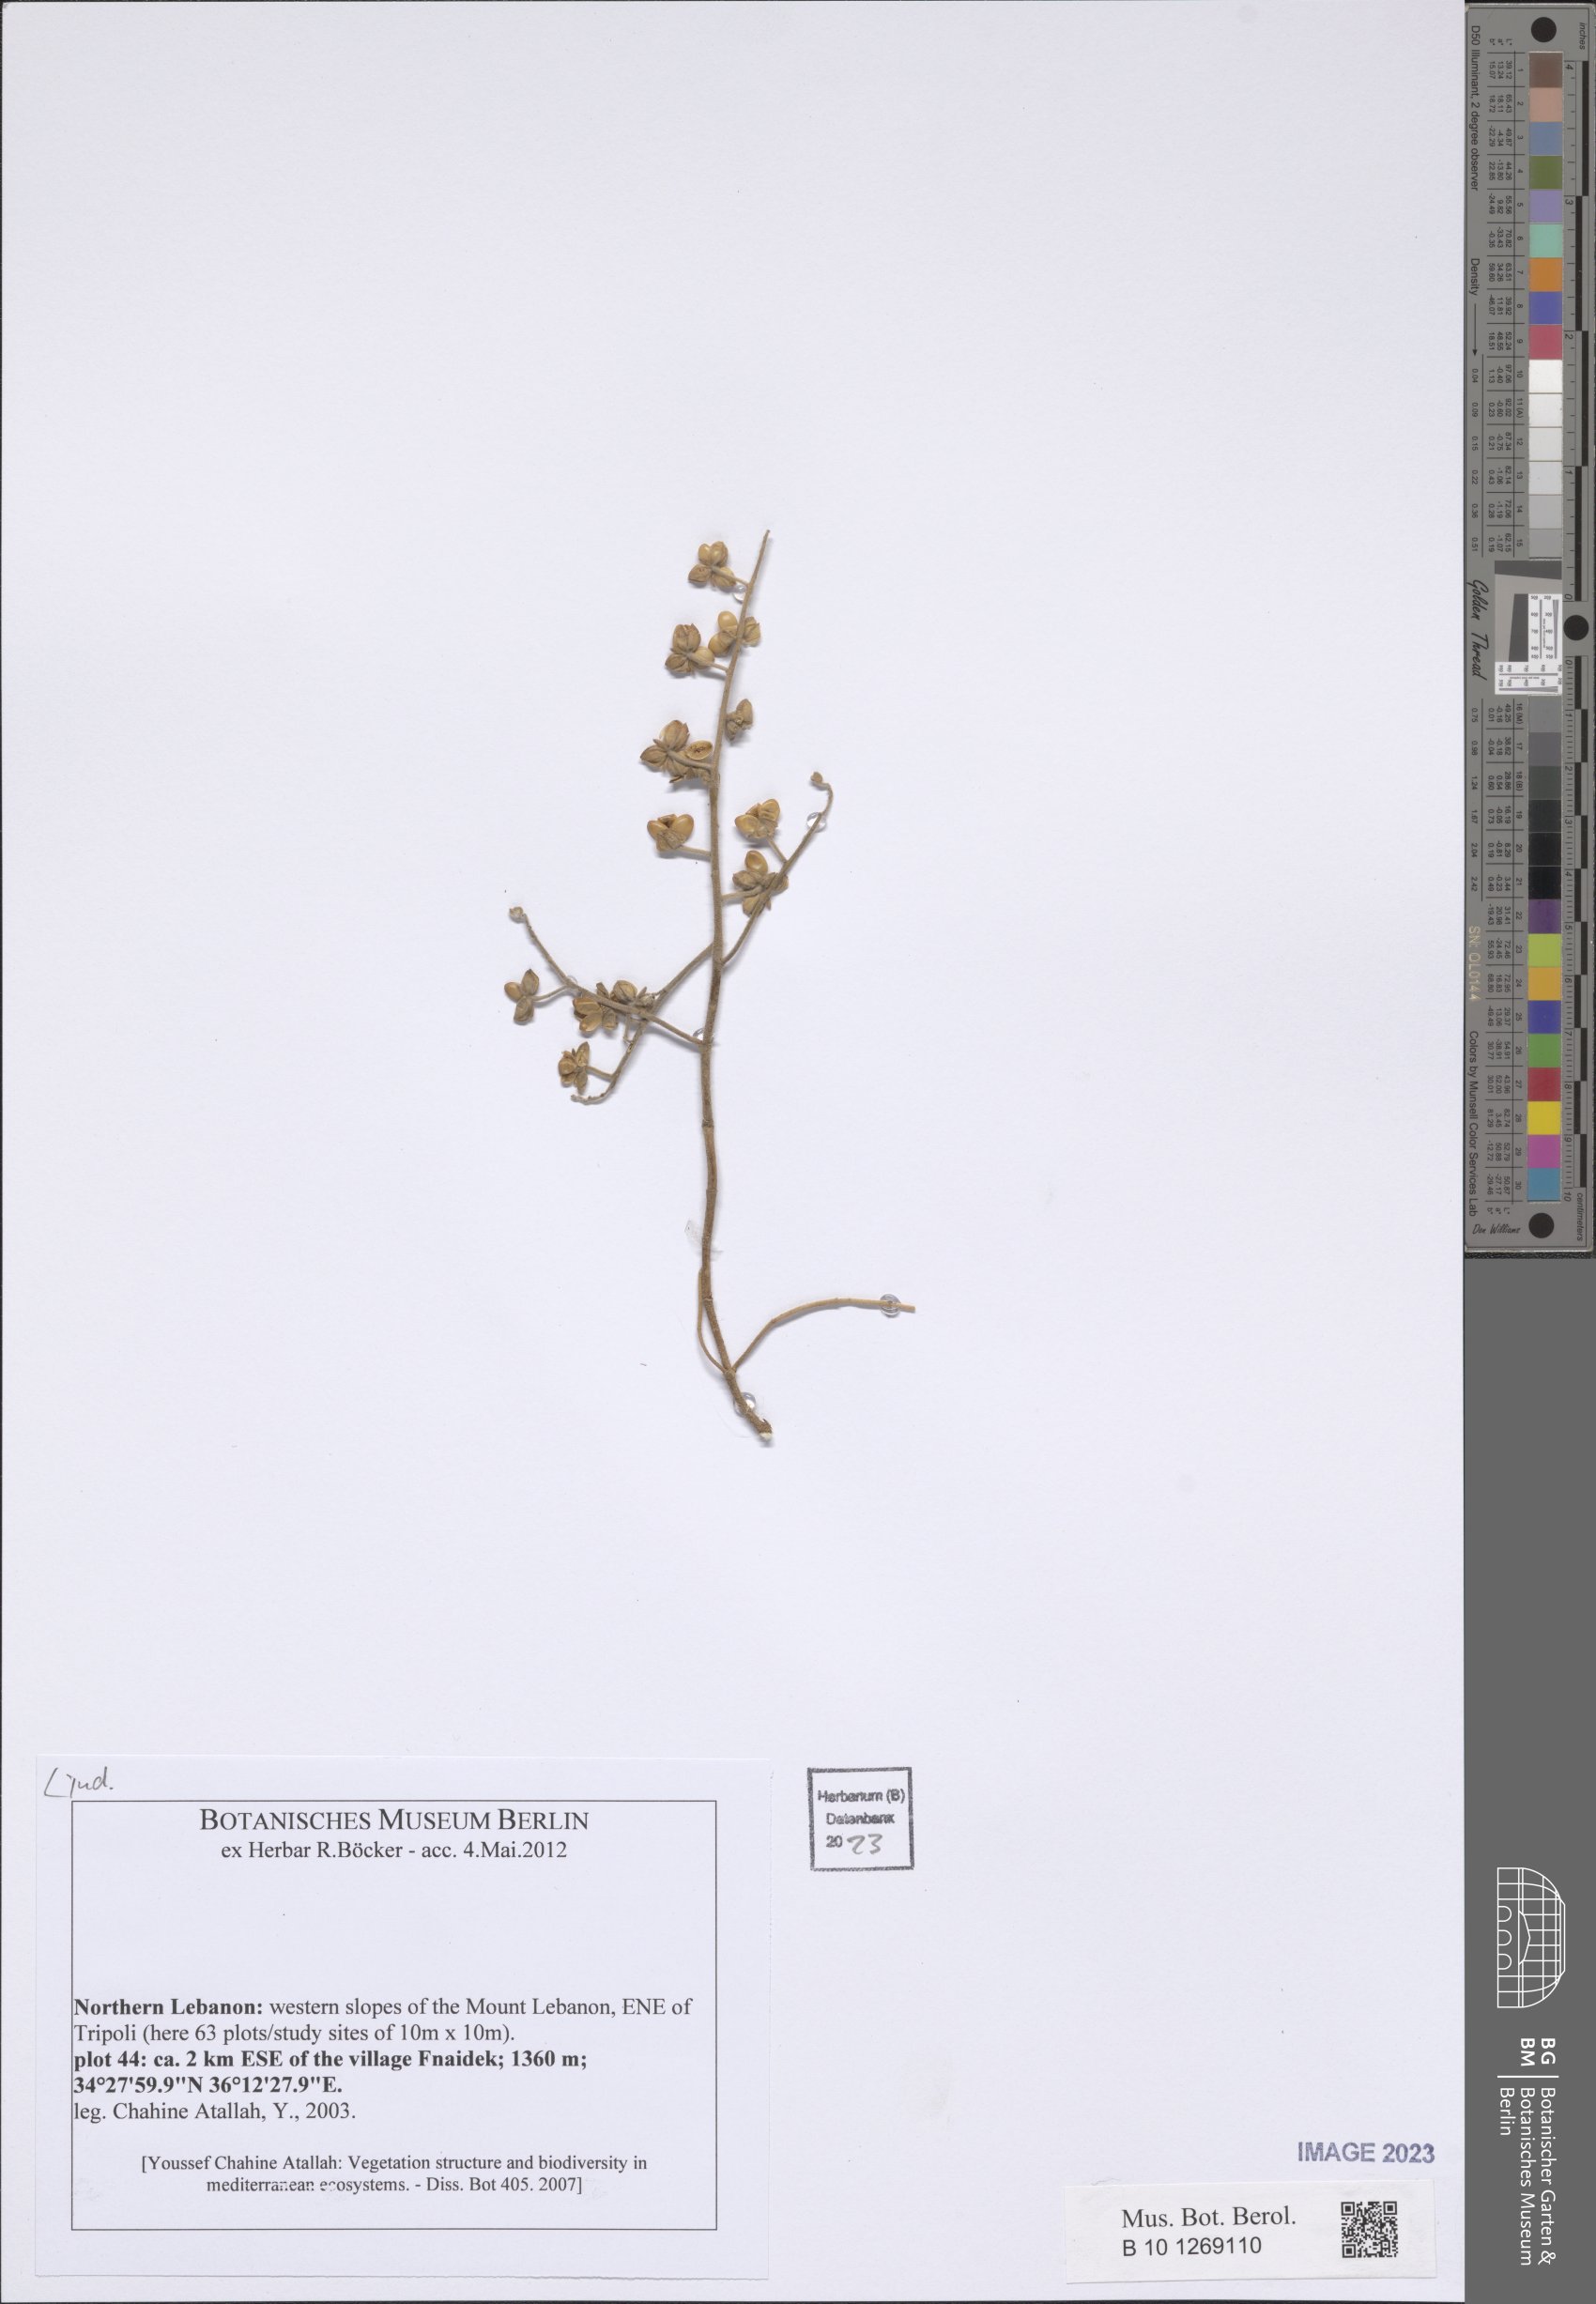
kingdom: Plantae
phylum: Tracheophyta
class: Magnoliopsida
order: Malvales
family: Cistaceae
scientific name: Cistaceae
